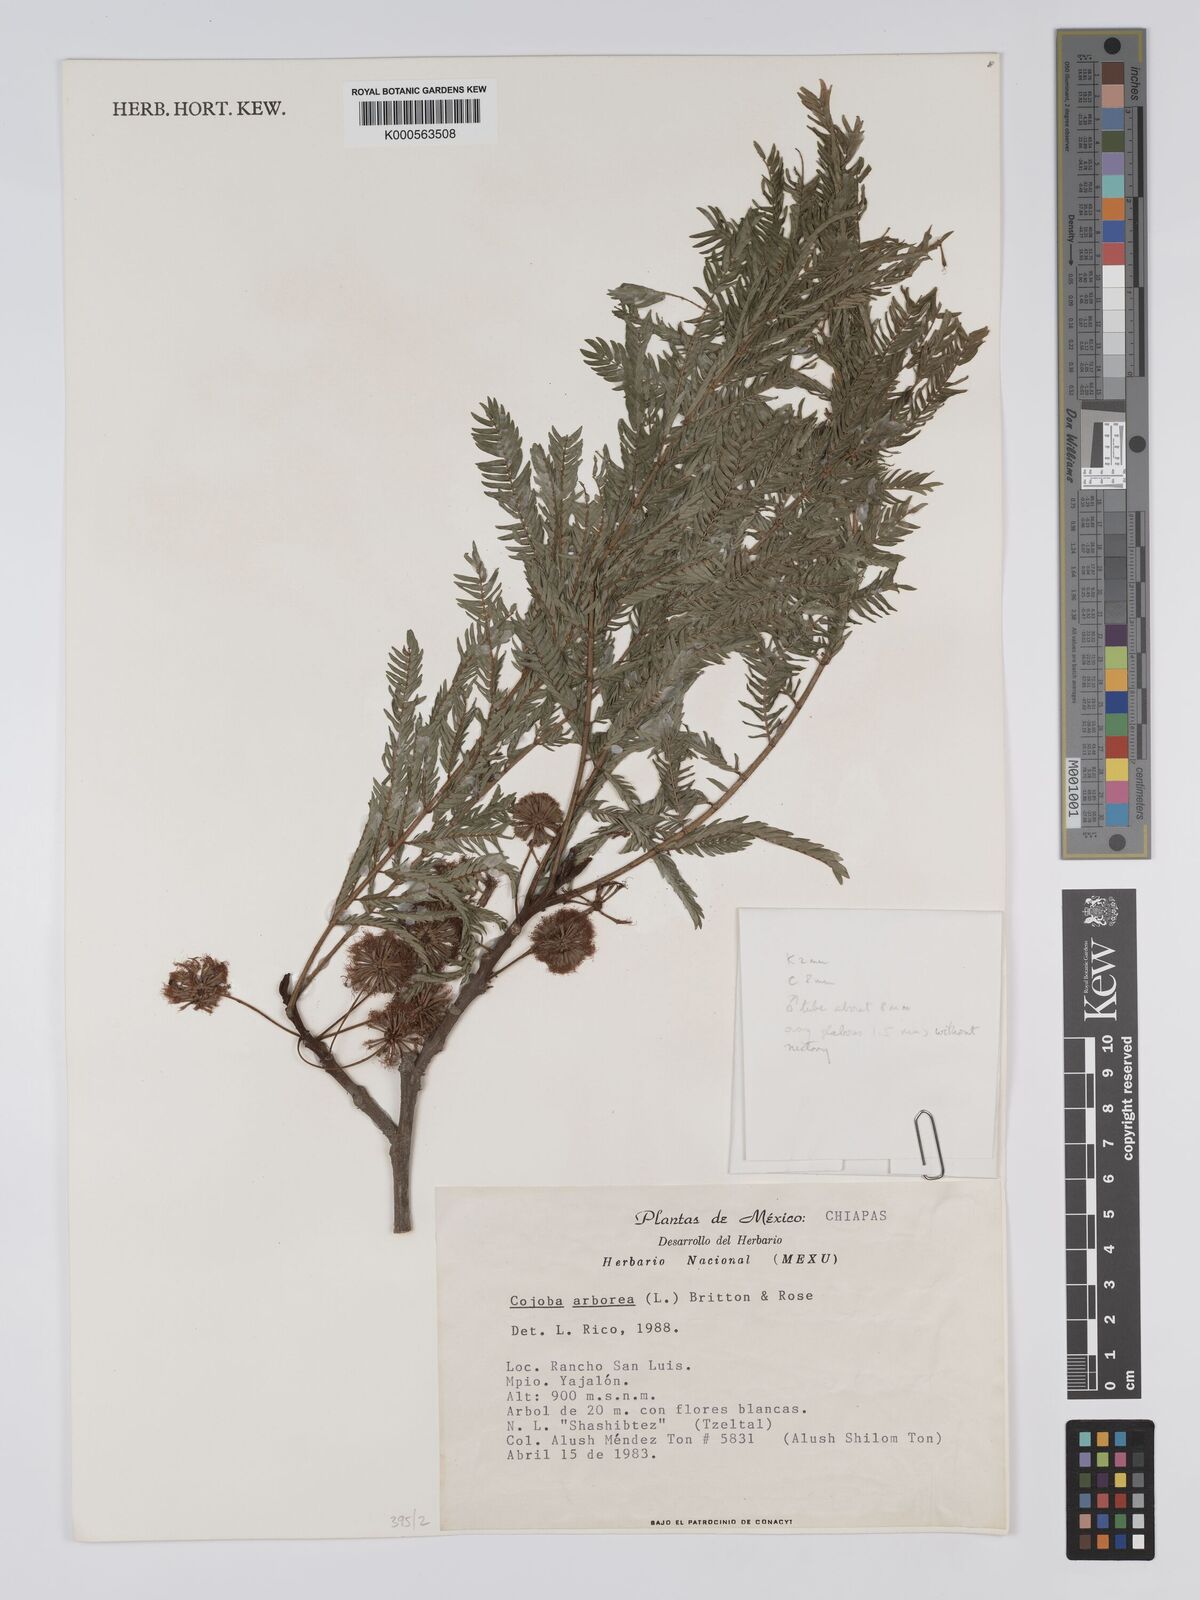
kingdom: Plantae
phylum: Tracheophyta
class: Magnoliopsida
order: Fabales
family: Fabaceae
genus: Cojoba
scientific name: Cojoba arborea
